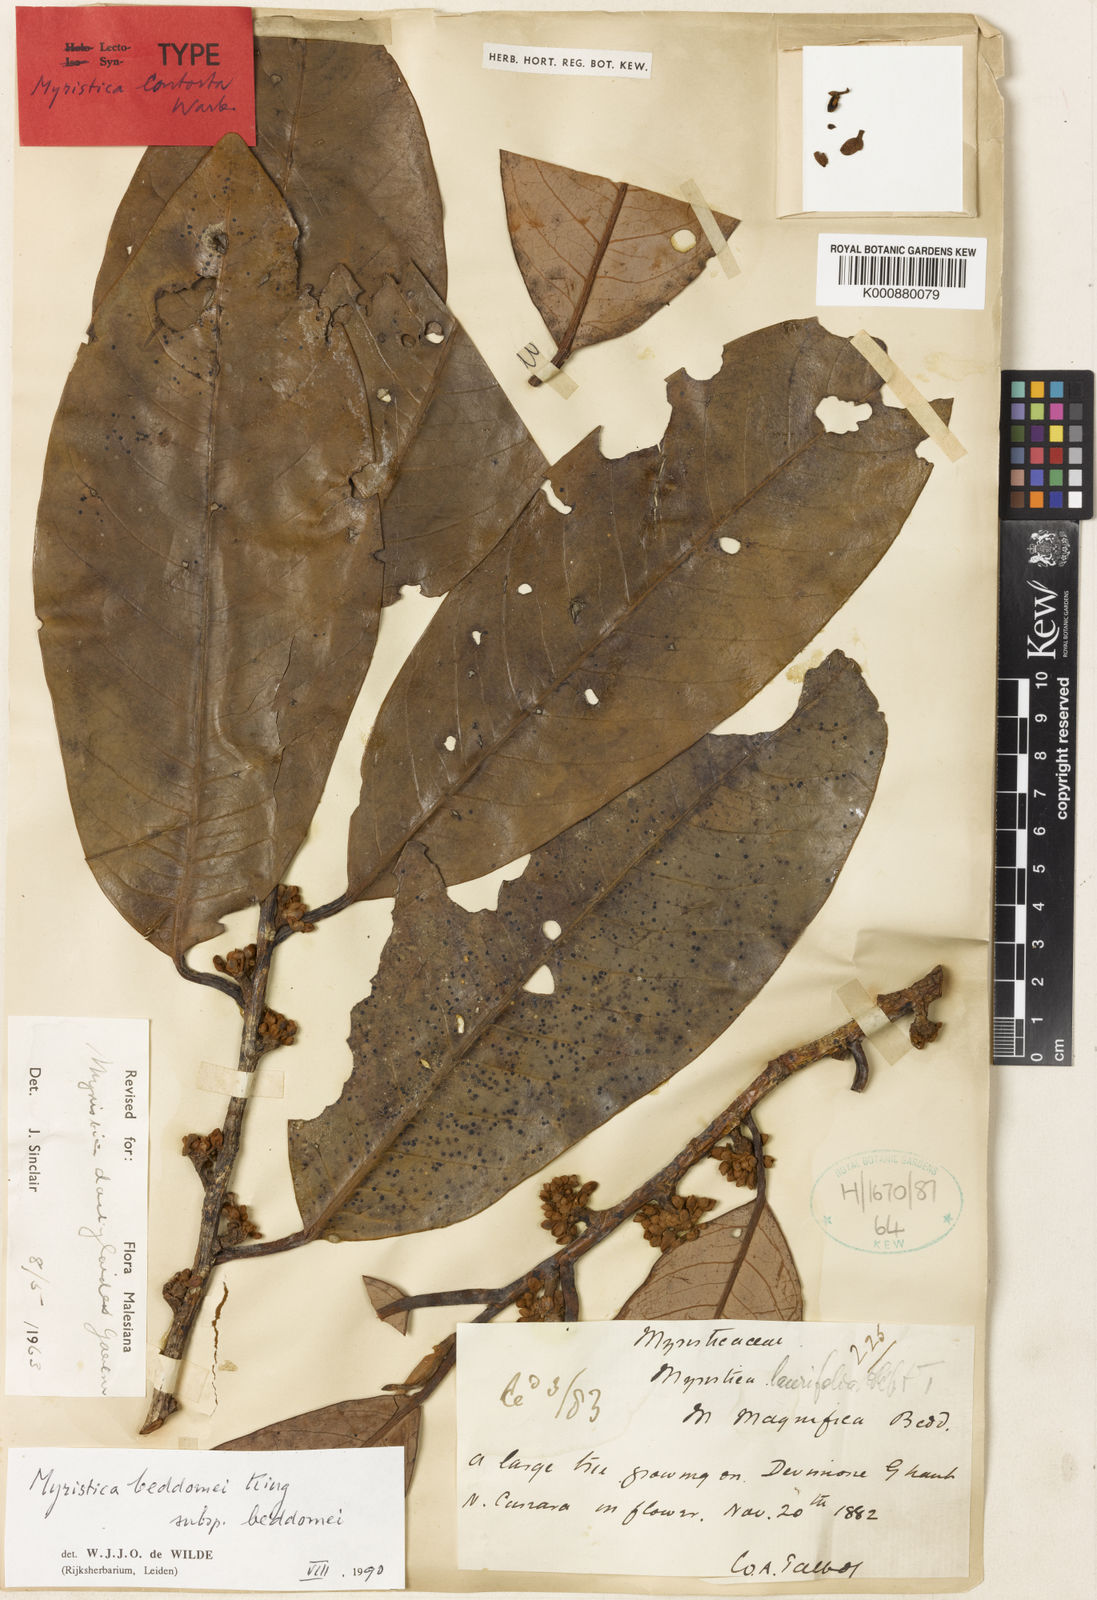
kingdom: Plantae
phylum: Tracheophyta
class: Magnoliopsida
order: Magnoliales
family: Myristicaceae
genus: Myristica
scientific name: Myristica beddomei
